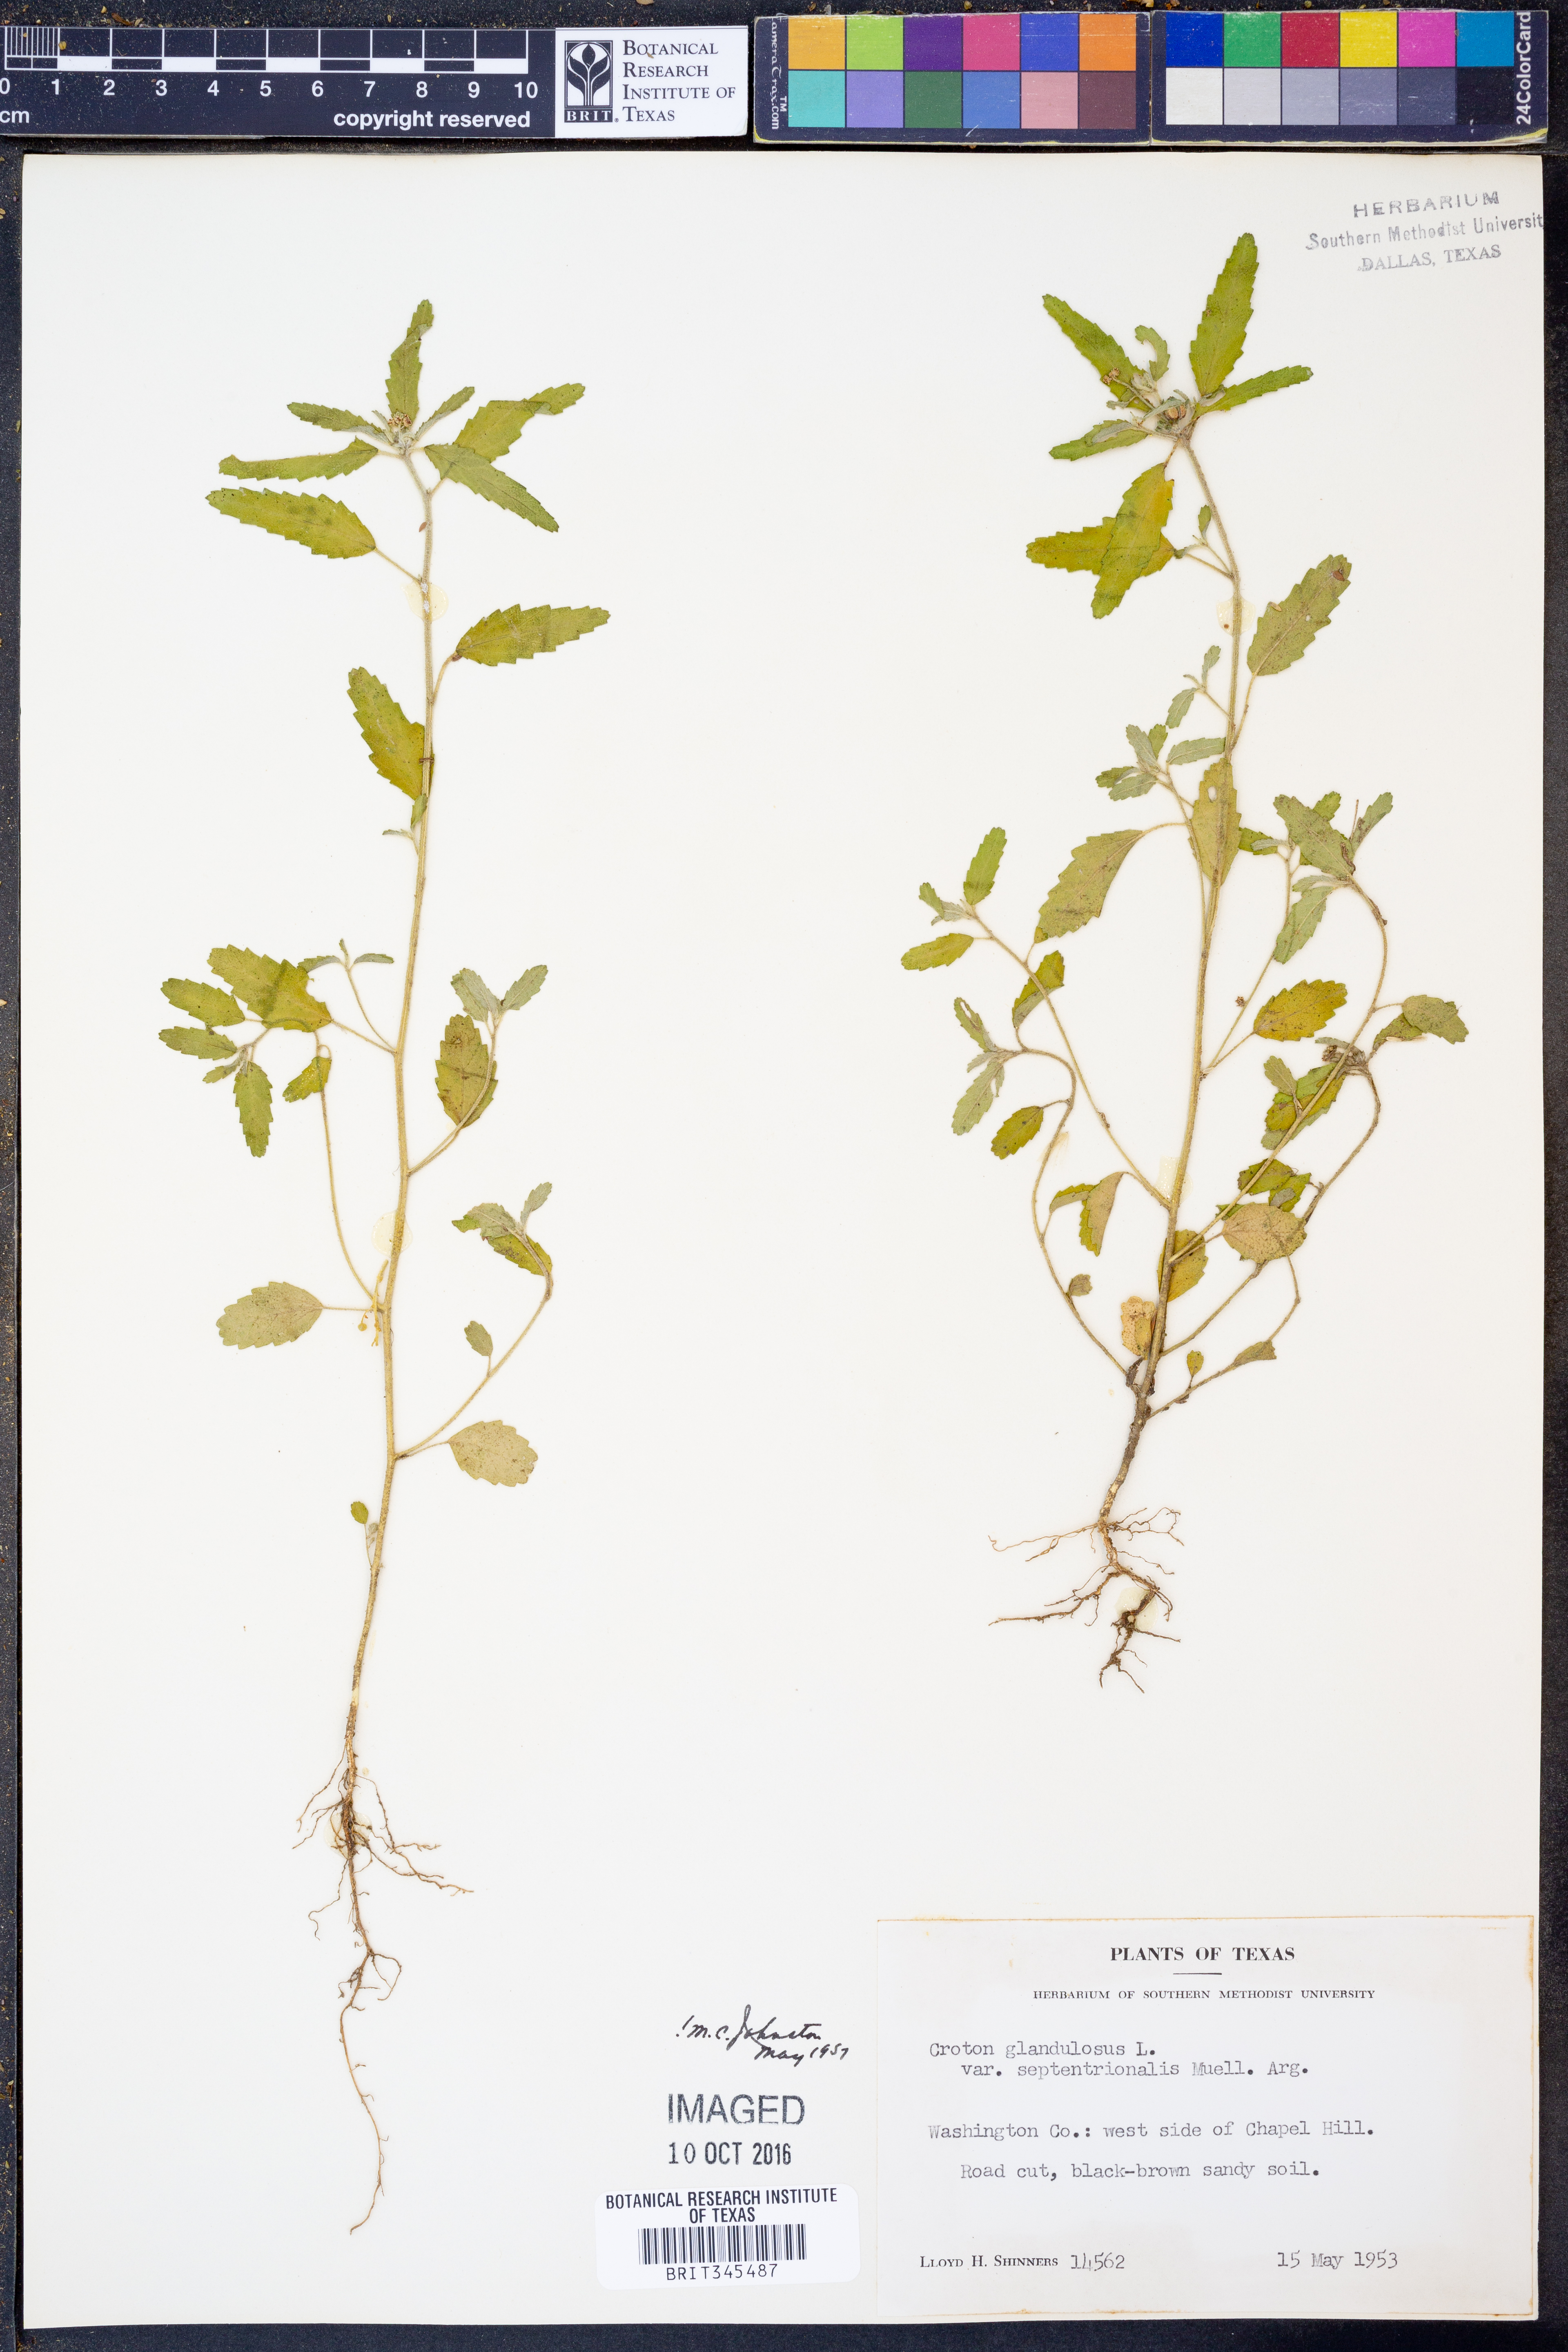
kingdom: Plantae
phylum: Tracheophyta
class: Magnoliopsida
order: Malpighiales
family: Euphorbiaceae
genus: Croton
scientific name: Croton glandulosus
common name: Tropic croton
